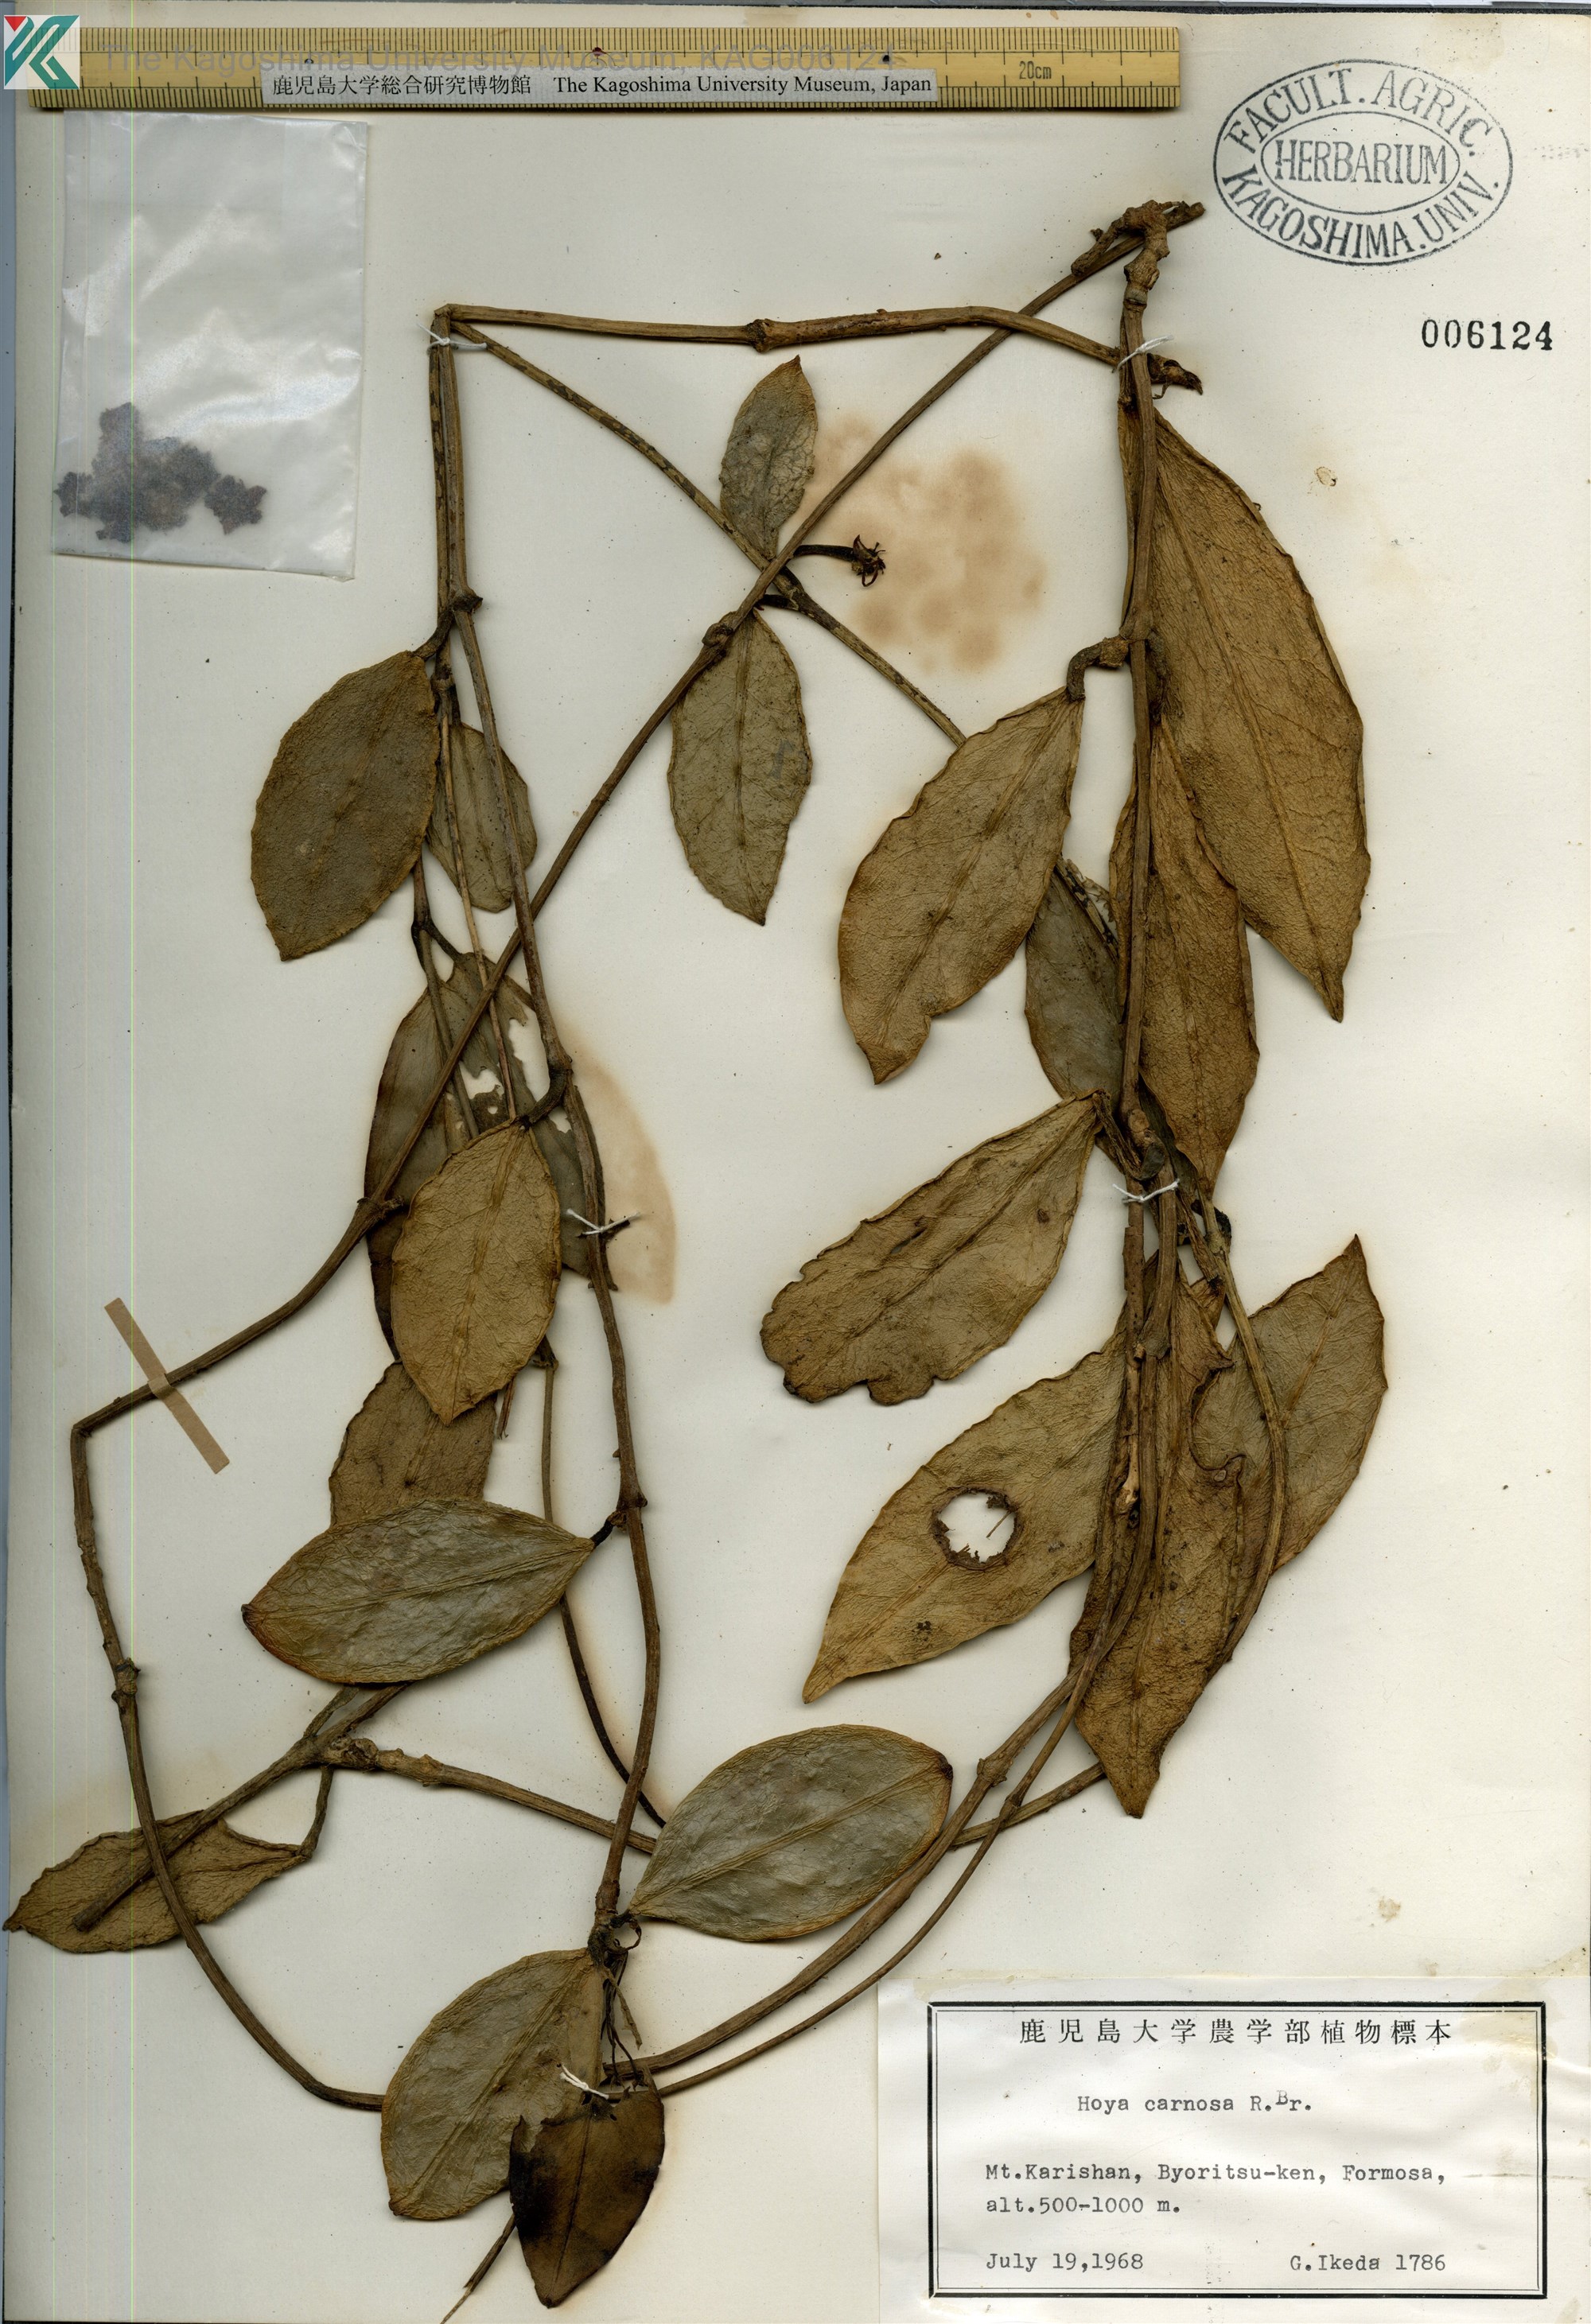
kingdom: Plantae
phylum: Tracheophyta
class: Magnoliopsida
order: Gentianales
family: Apocynaceae
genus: Hoya
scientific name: Hoya carnosa
